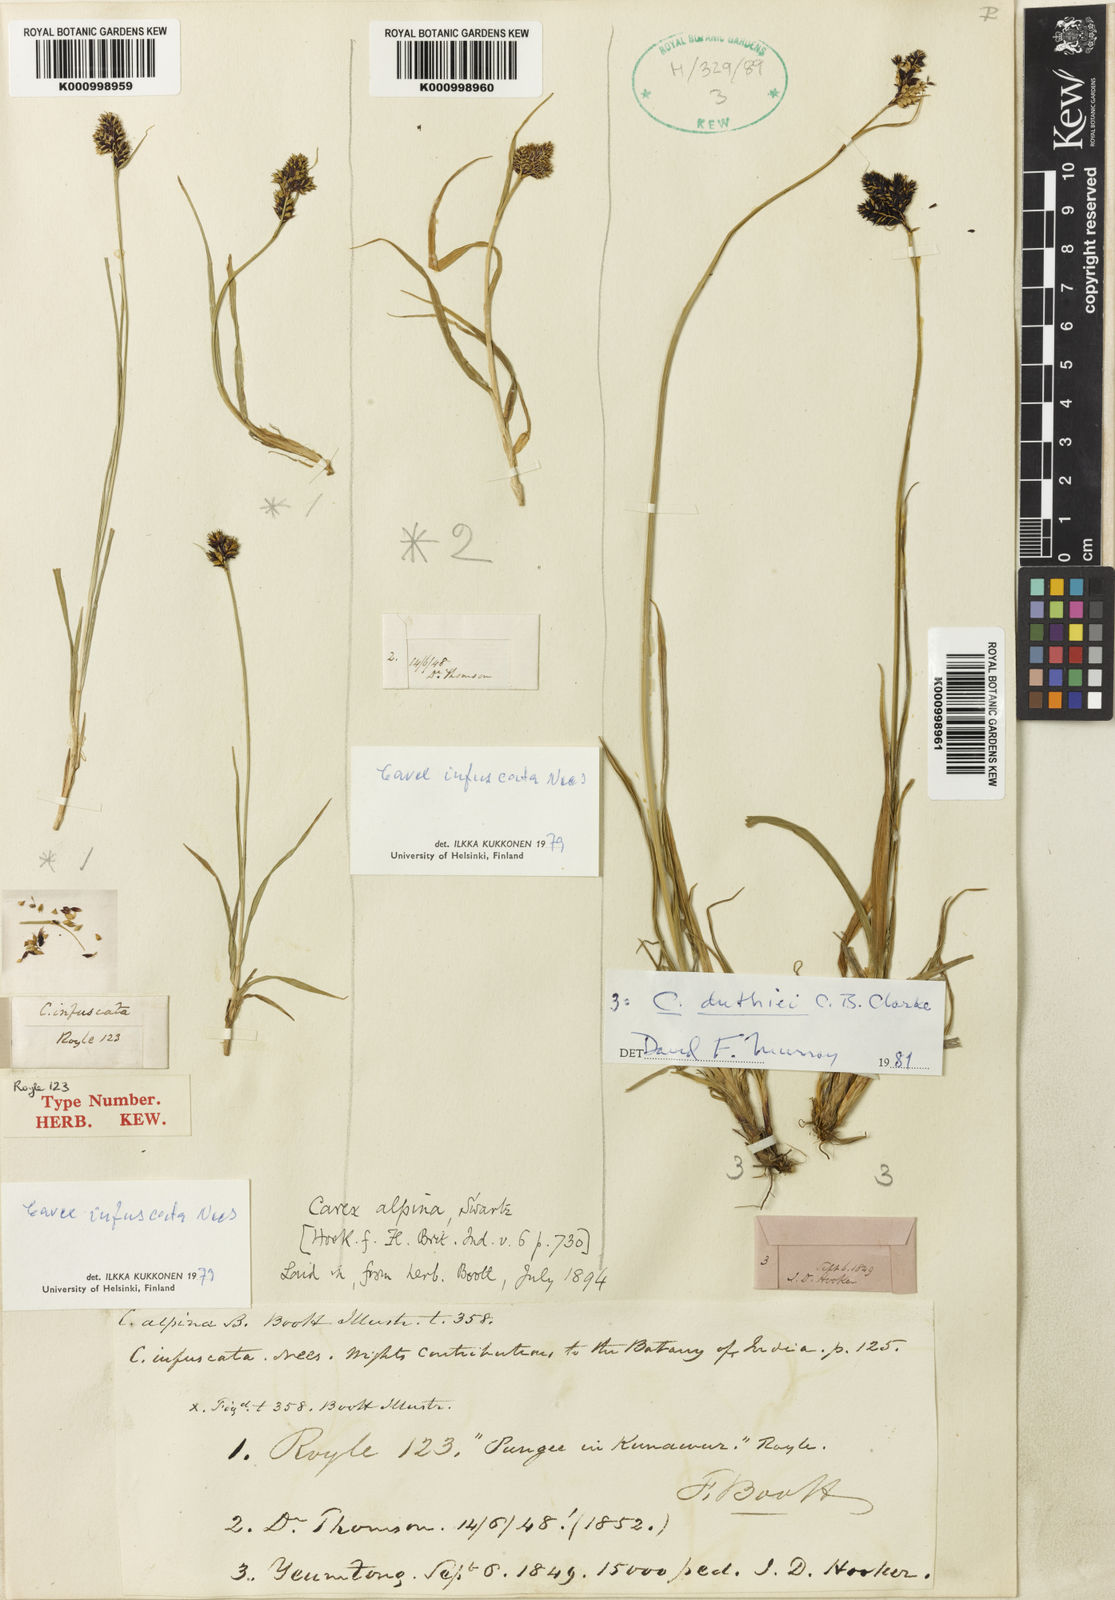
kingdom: Plantae
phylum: Tracheophyta
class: Liliopsida
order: Poales
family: Cyperaceae
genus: Carex
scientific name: Carex norvegica
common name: Close-headed alpine-sedge
